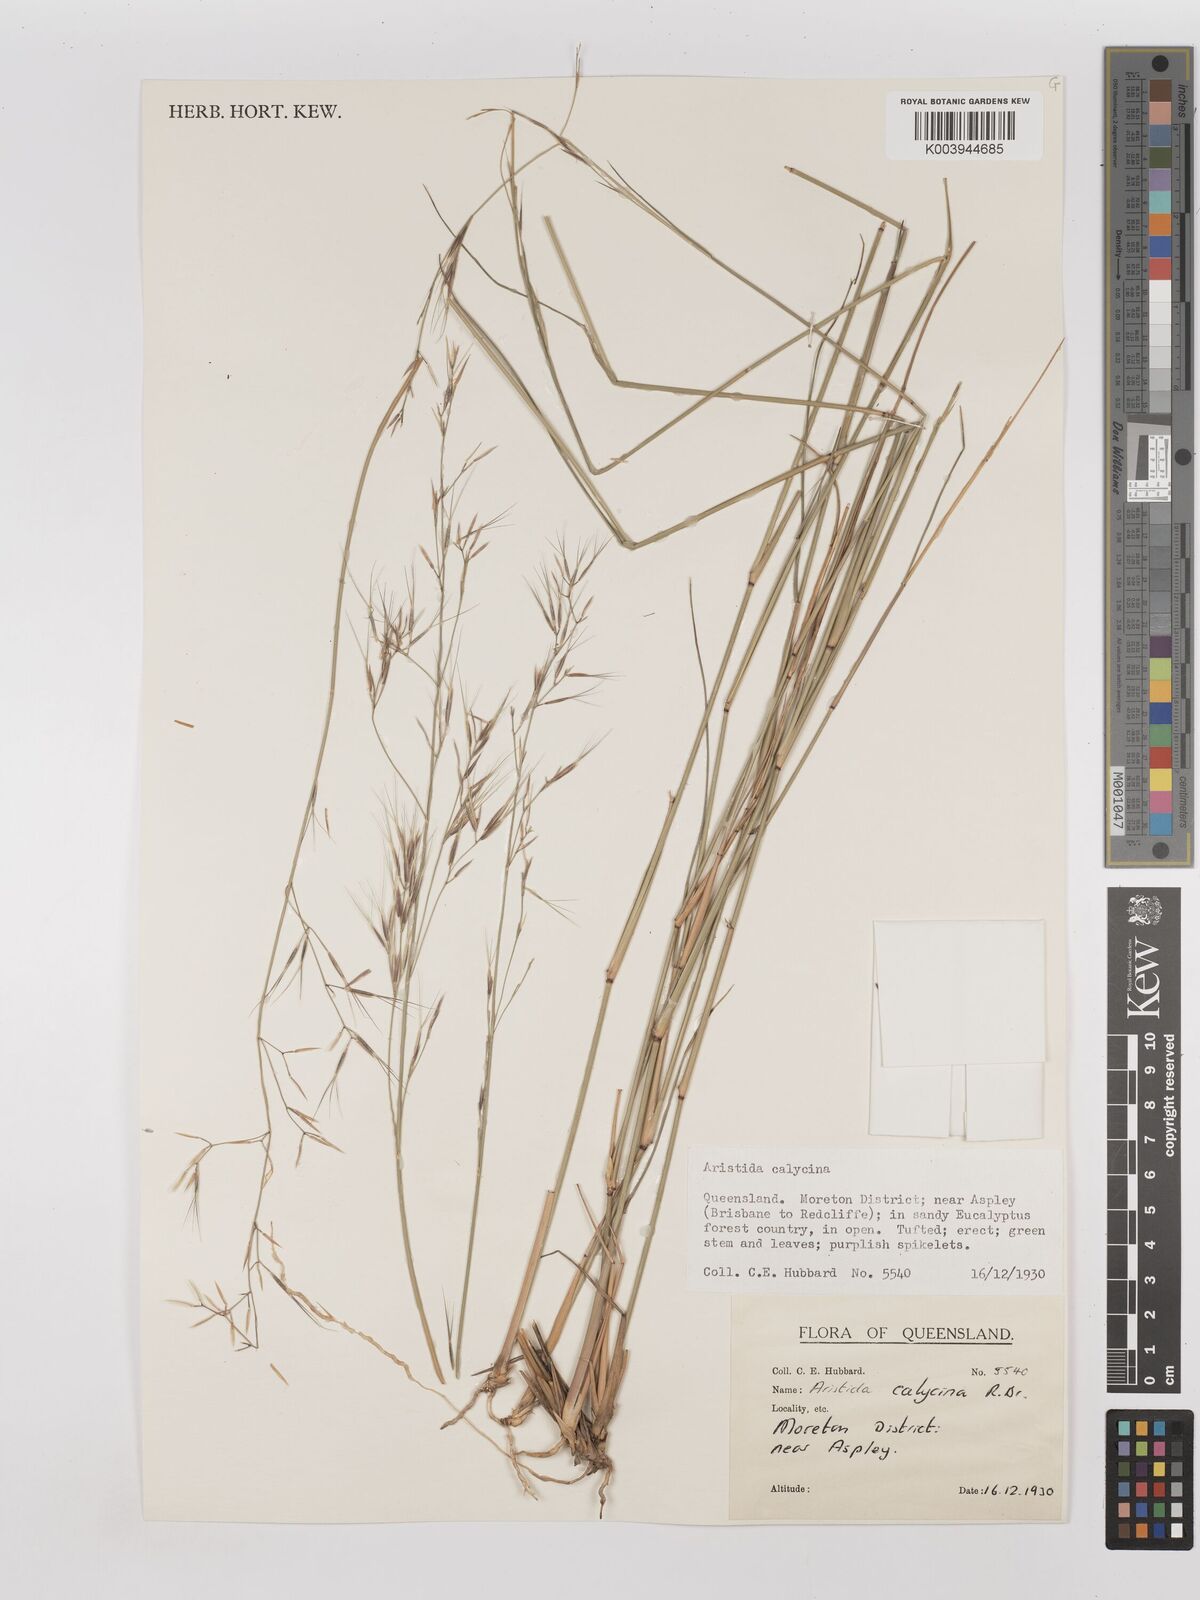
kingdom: Plantae
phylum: Tracheophyta
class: Liliopsida
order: Poales
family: Poaceae
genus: Aristida
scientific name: Aristida calycina
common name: Dark wire grass
